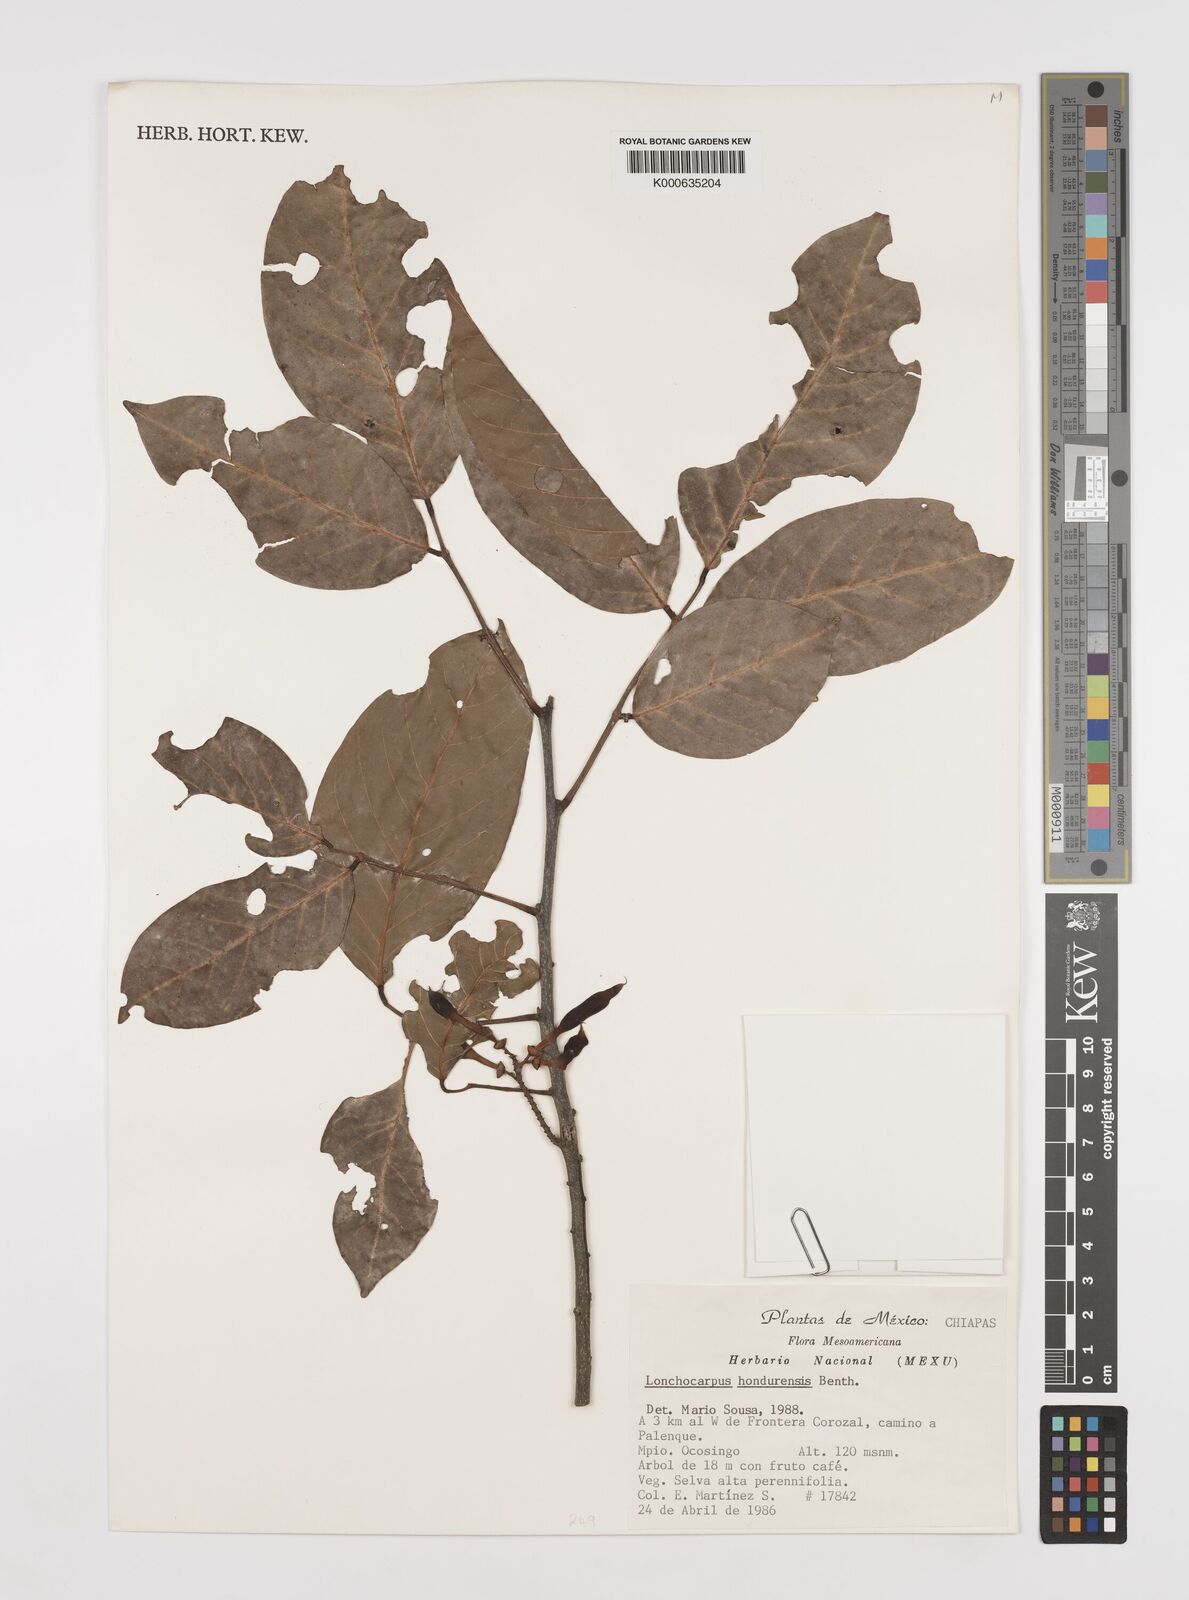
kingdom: Plantae
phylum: Tracheophyta
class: Magnoliopsida
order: Fabales
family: Fabaceae
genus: Lonchocarpus
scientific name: Lonchocarpus hondurensis
